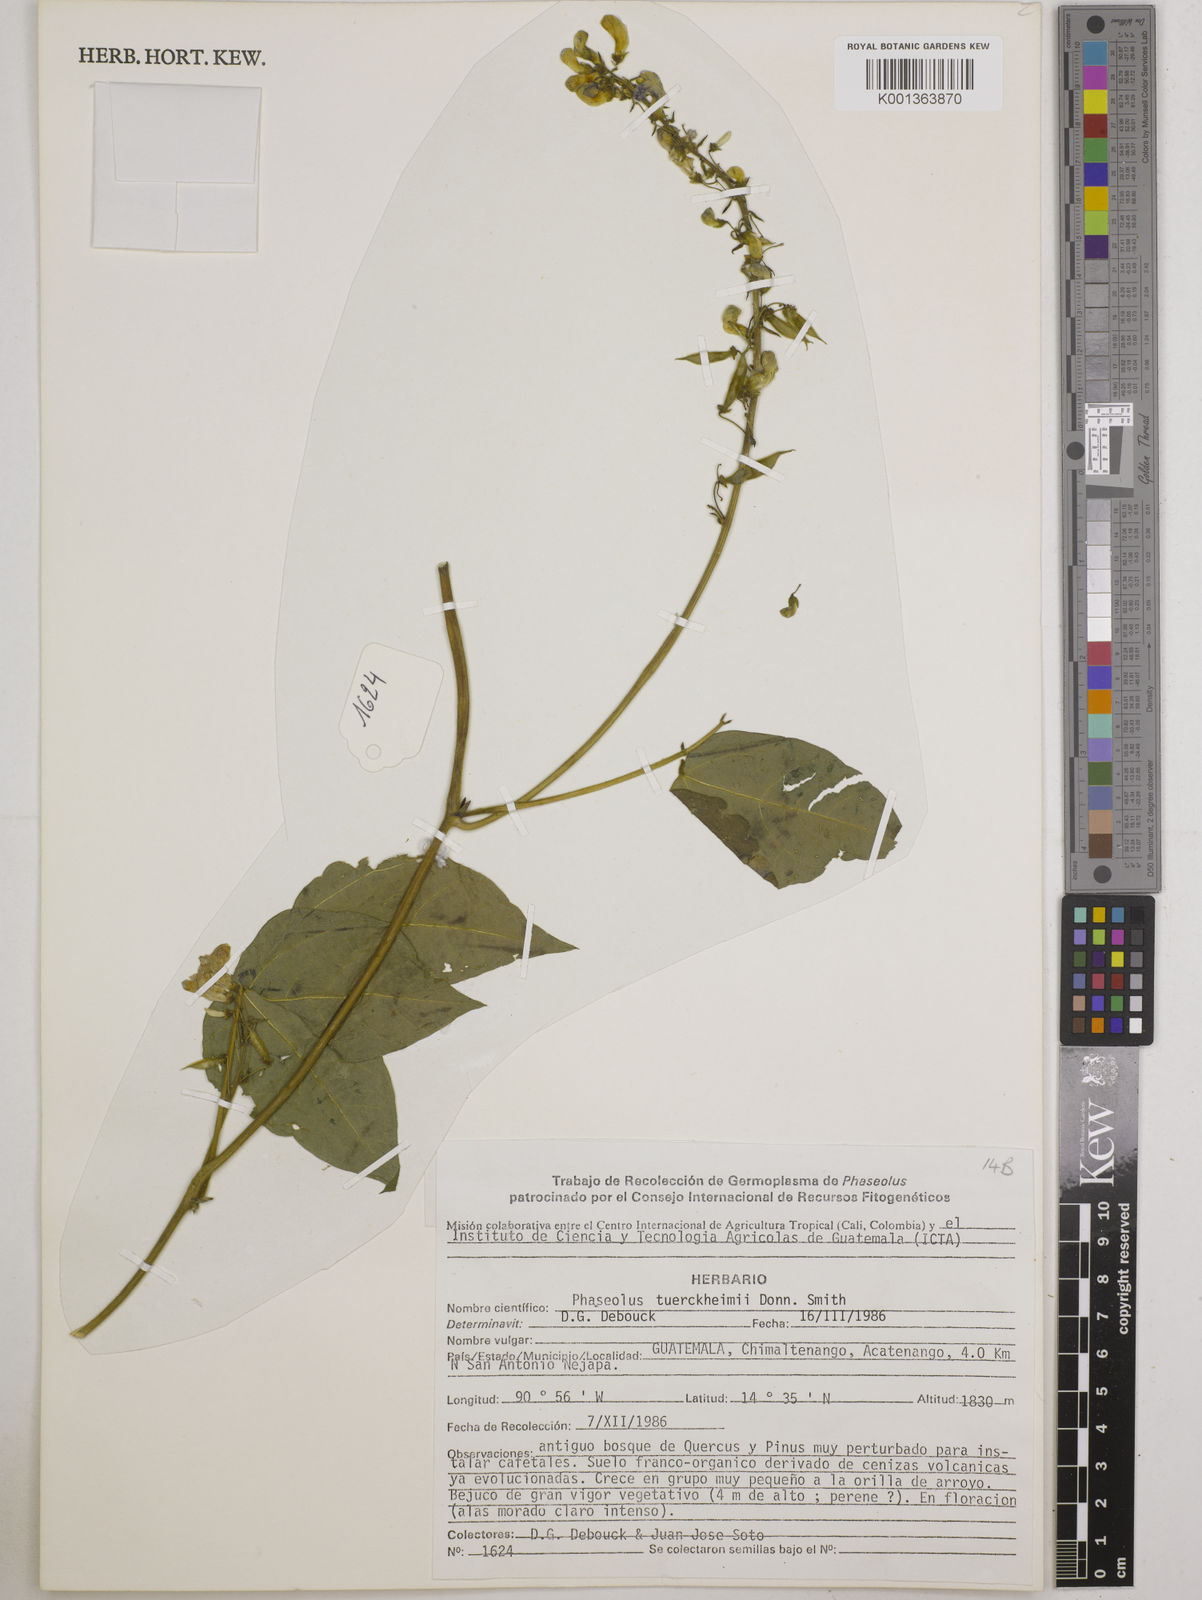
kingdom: Plantae
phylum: Tracheophyta
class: Magnoliopsida
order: Fabales
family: Fabaceae
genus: Phaseolus
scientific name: Phaseolus tuerckheimii
